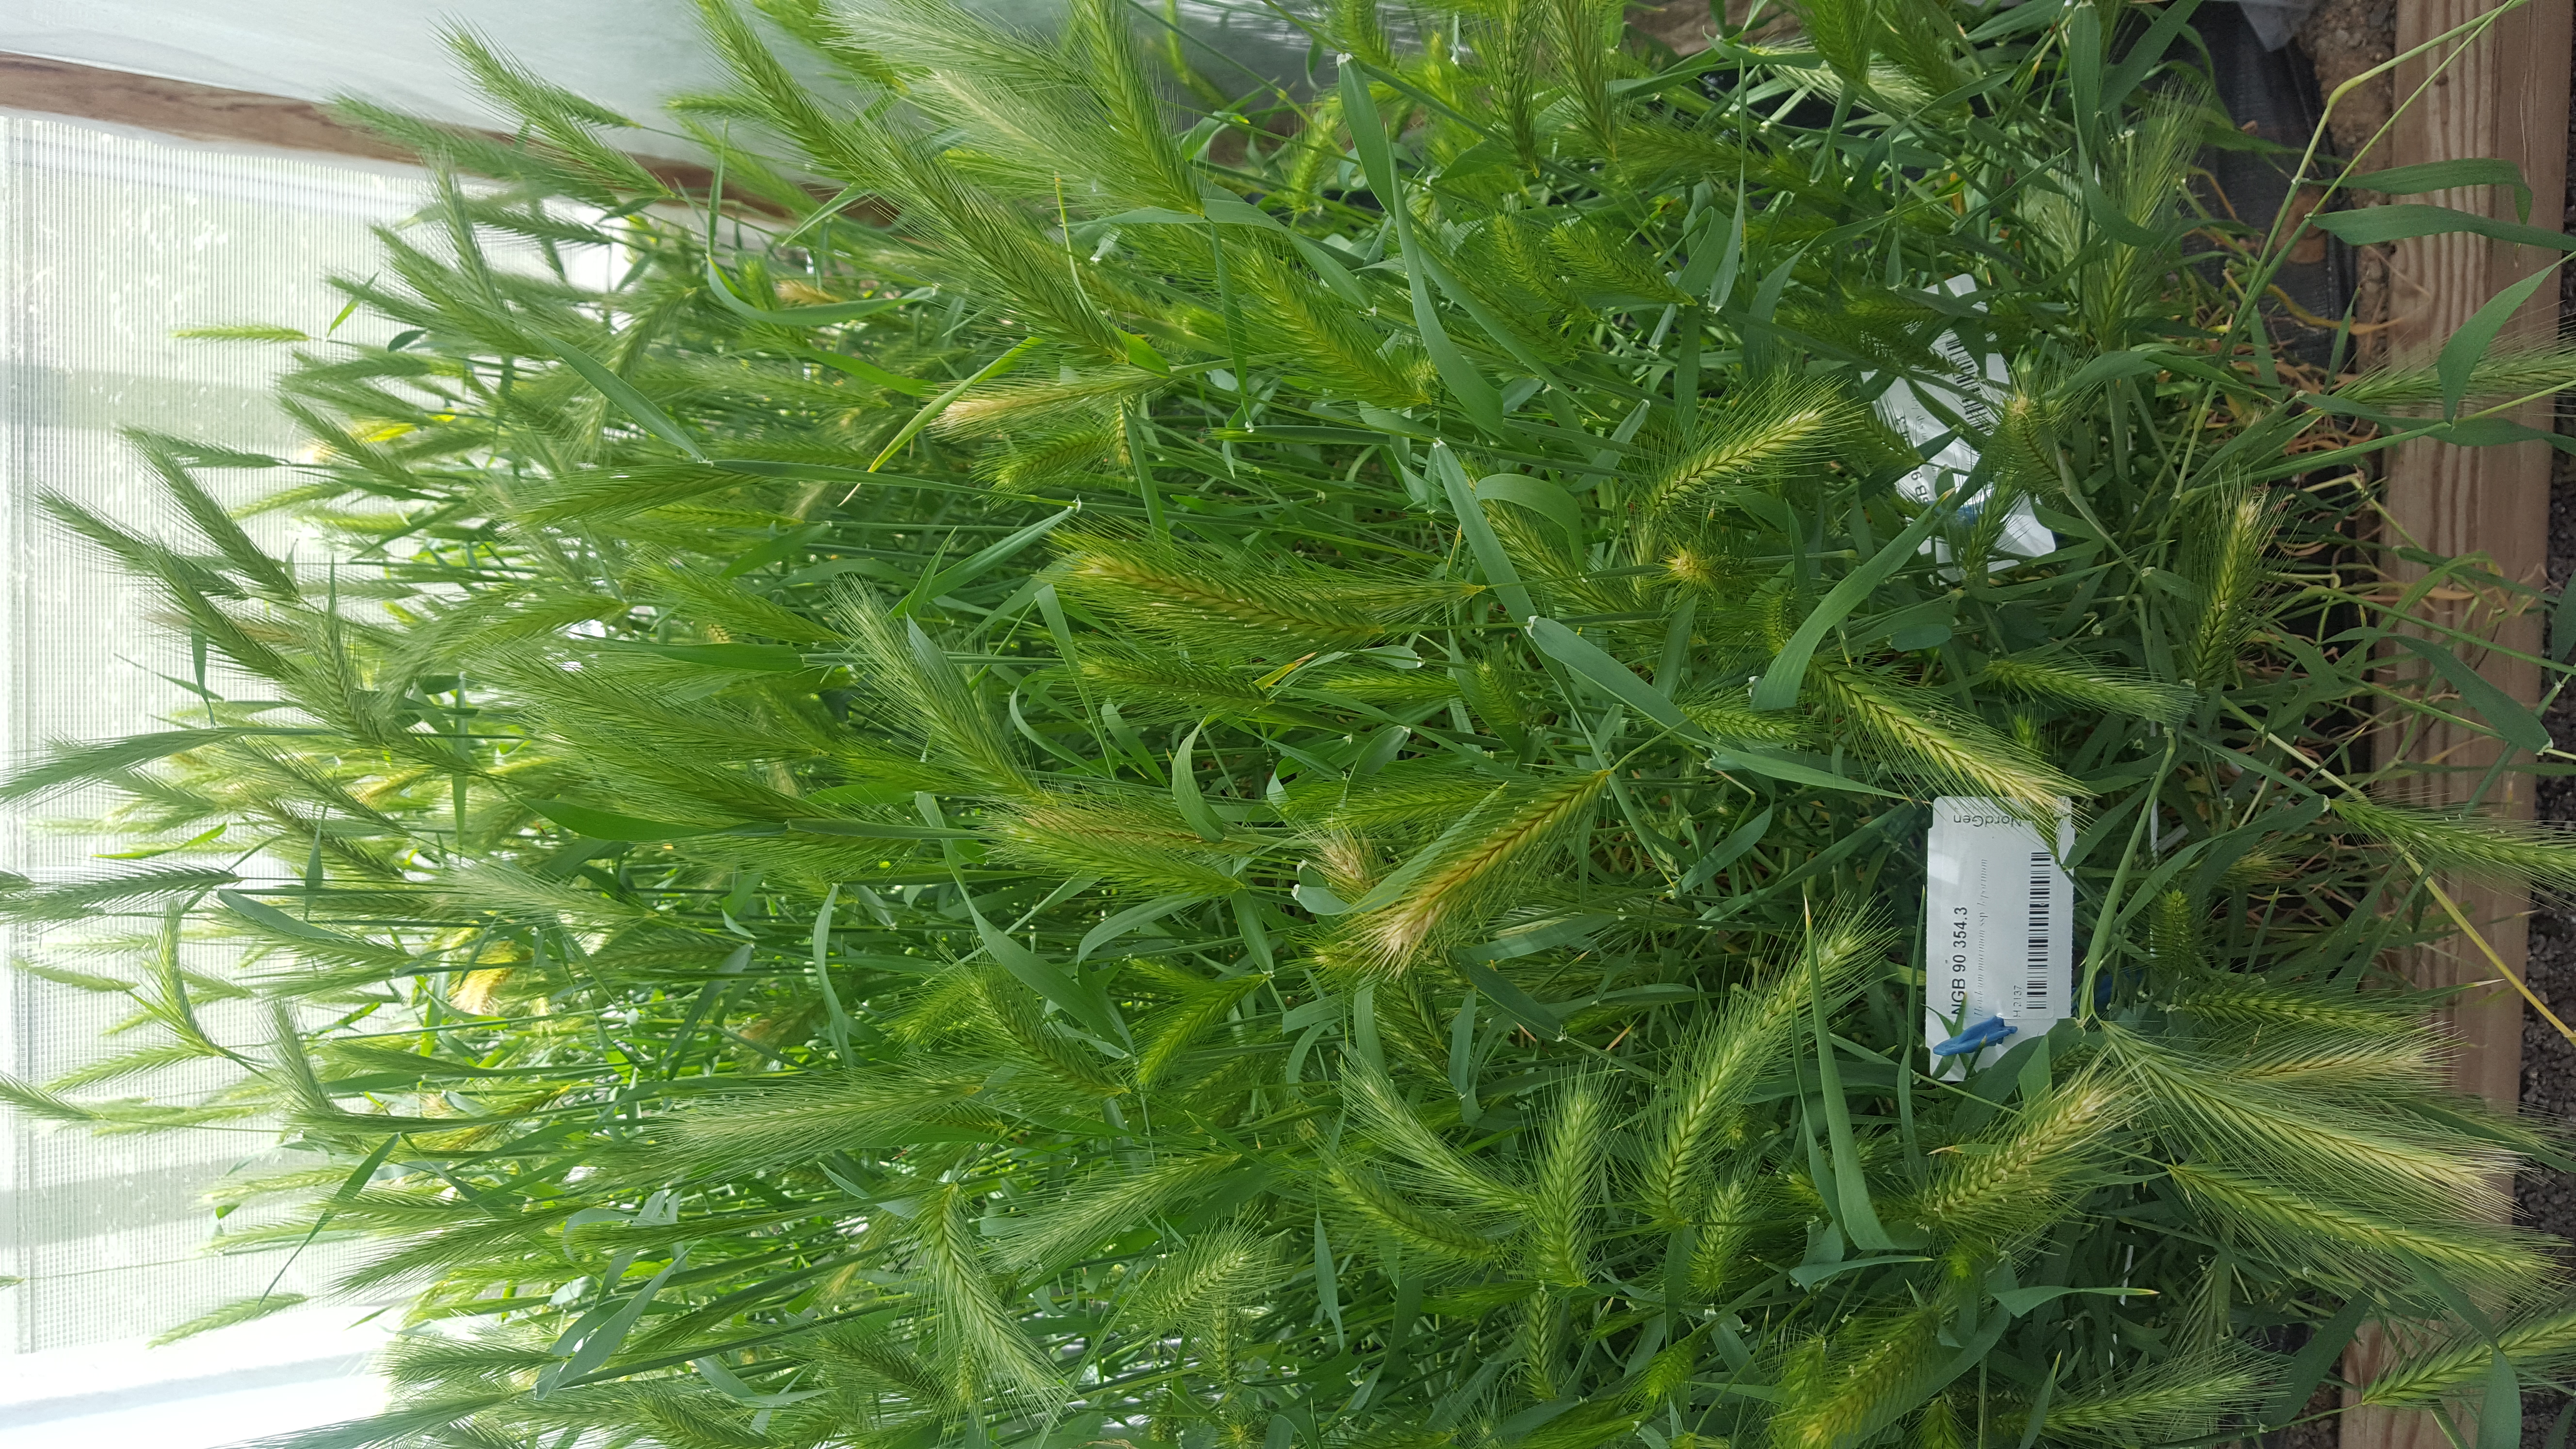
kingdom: Plantae
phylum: Tracheophyta
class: Liliopsida
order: Poales
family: Poaceae
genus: Hordeum
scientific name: Hordeum murinum
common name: Wall barley
